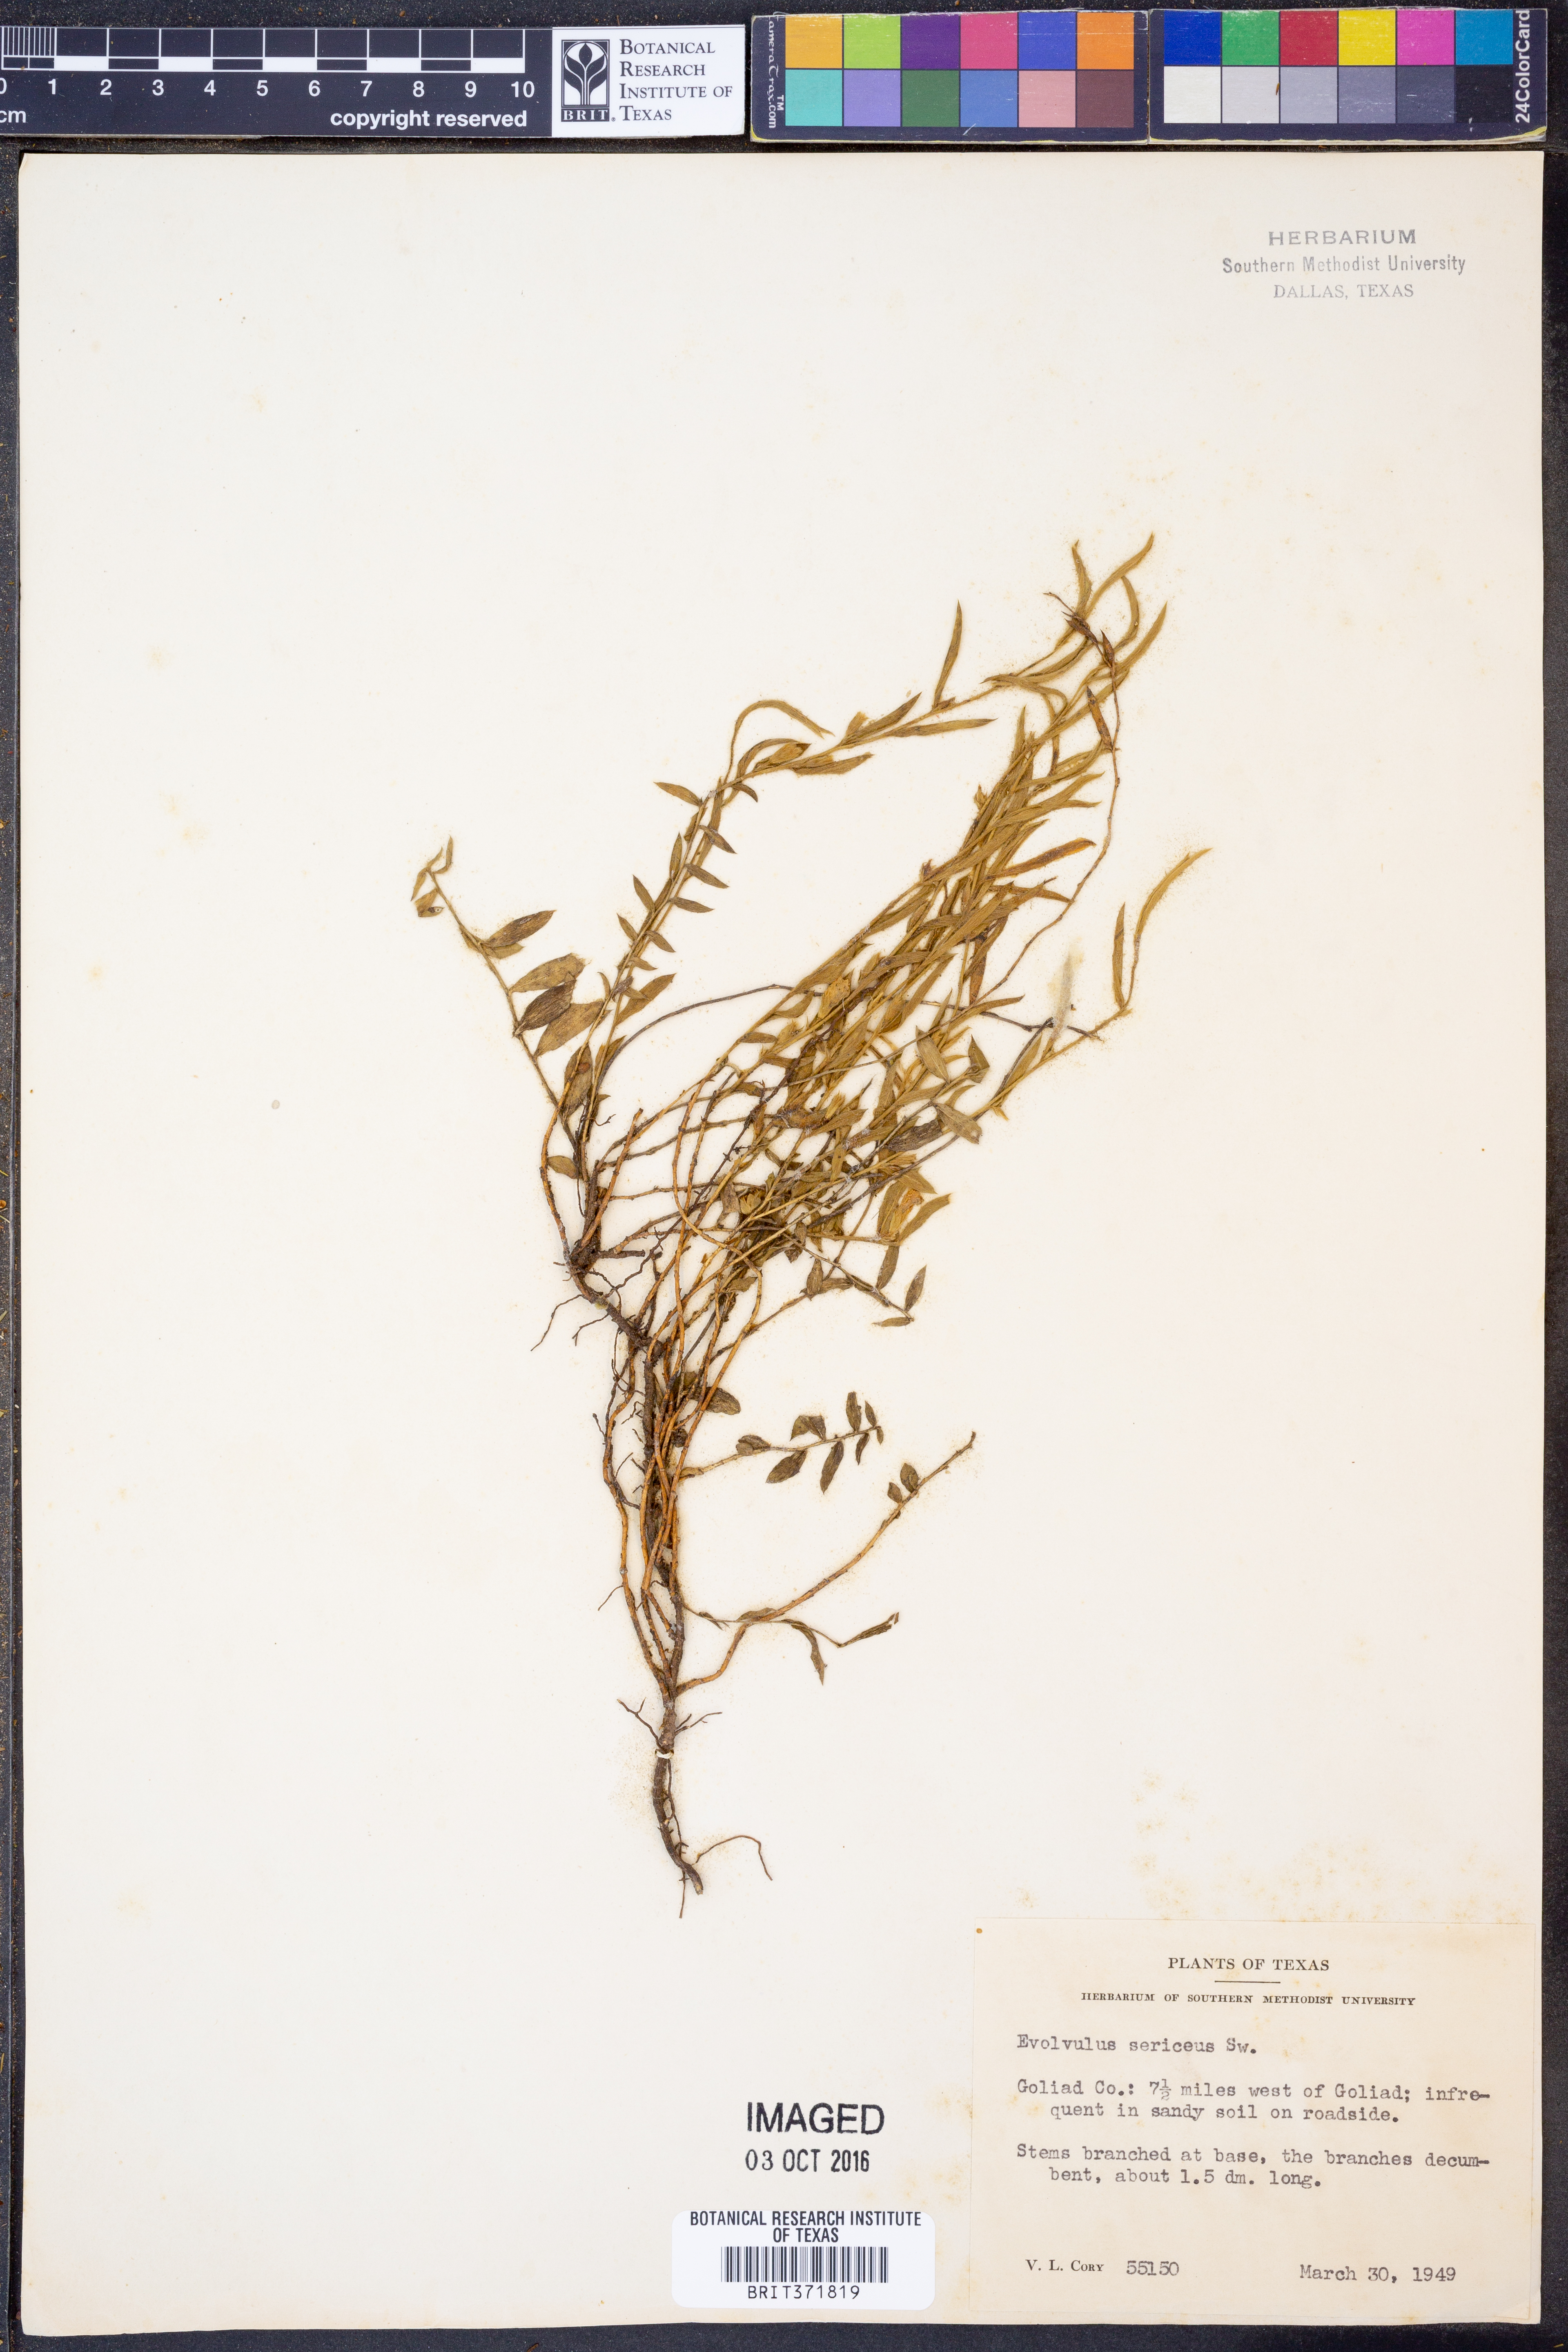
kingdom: Plantae
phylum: Tracheophyta
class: Magnoliopsida
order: Solanales
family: Convolvulaceae
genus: Evolvulus
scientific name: Evolvulus sericeus
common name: Blue dots
